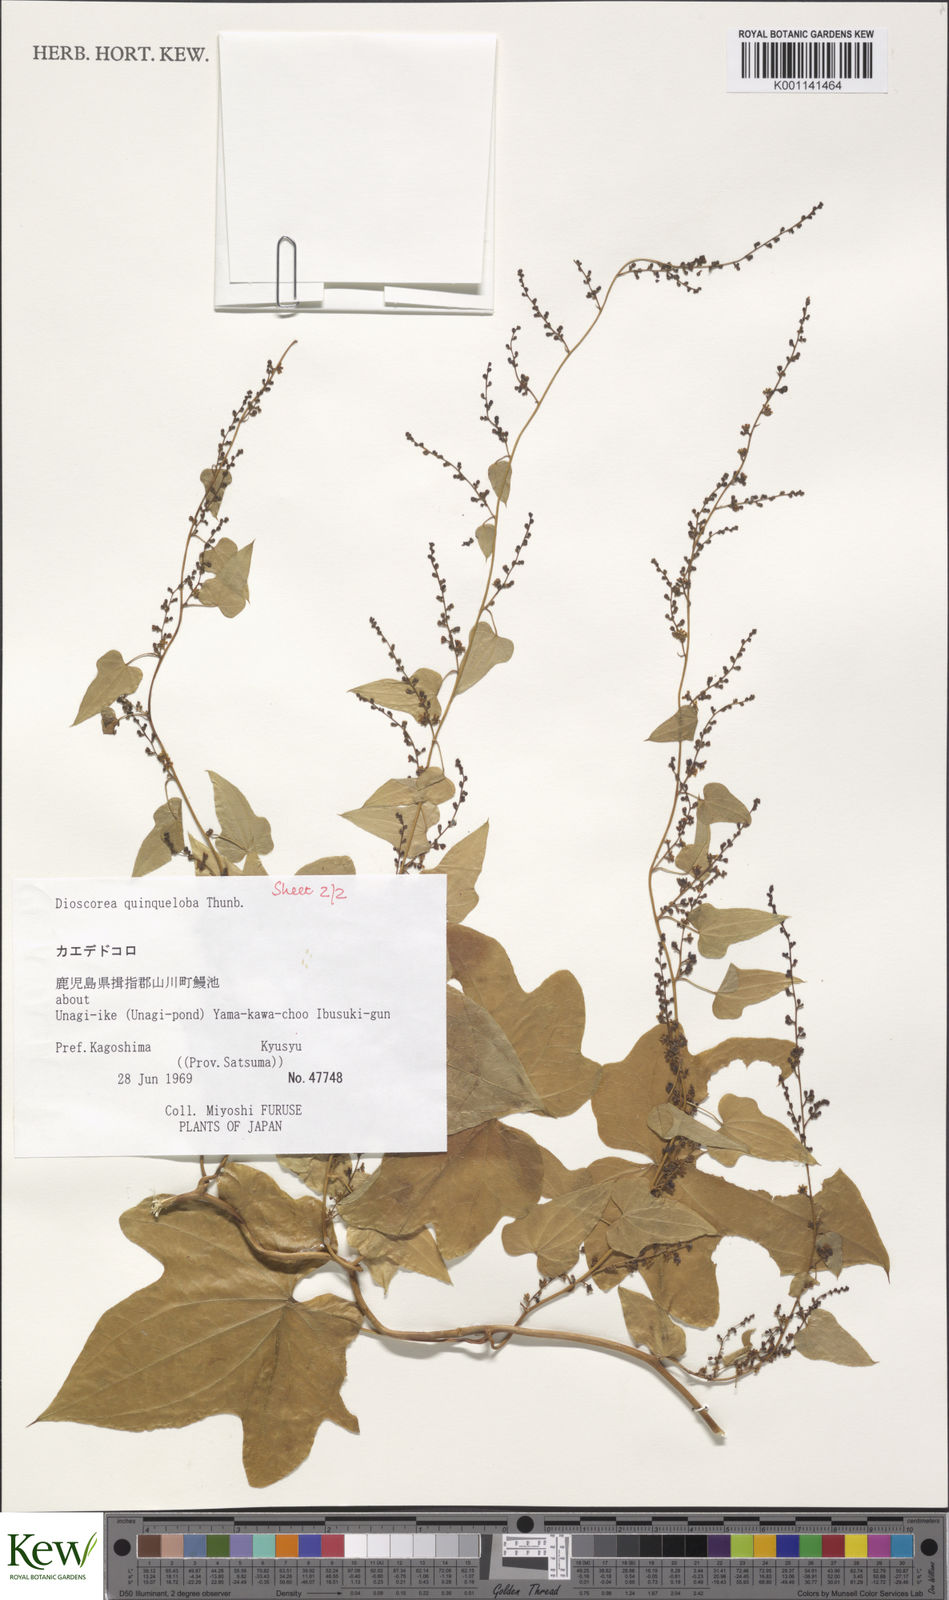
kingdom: Plantae
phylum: Tracheophyta
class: Liliopsida
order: Dioscoreales
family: Dioscoreaceae
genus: Dioscorea
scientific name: Dioscorea quinquelobata
